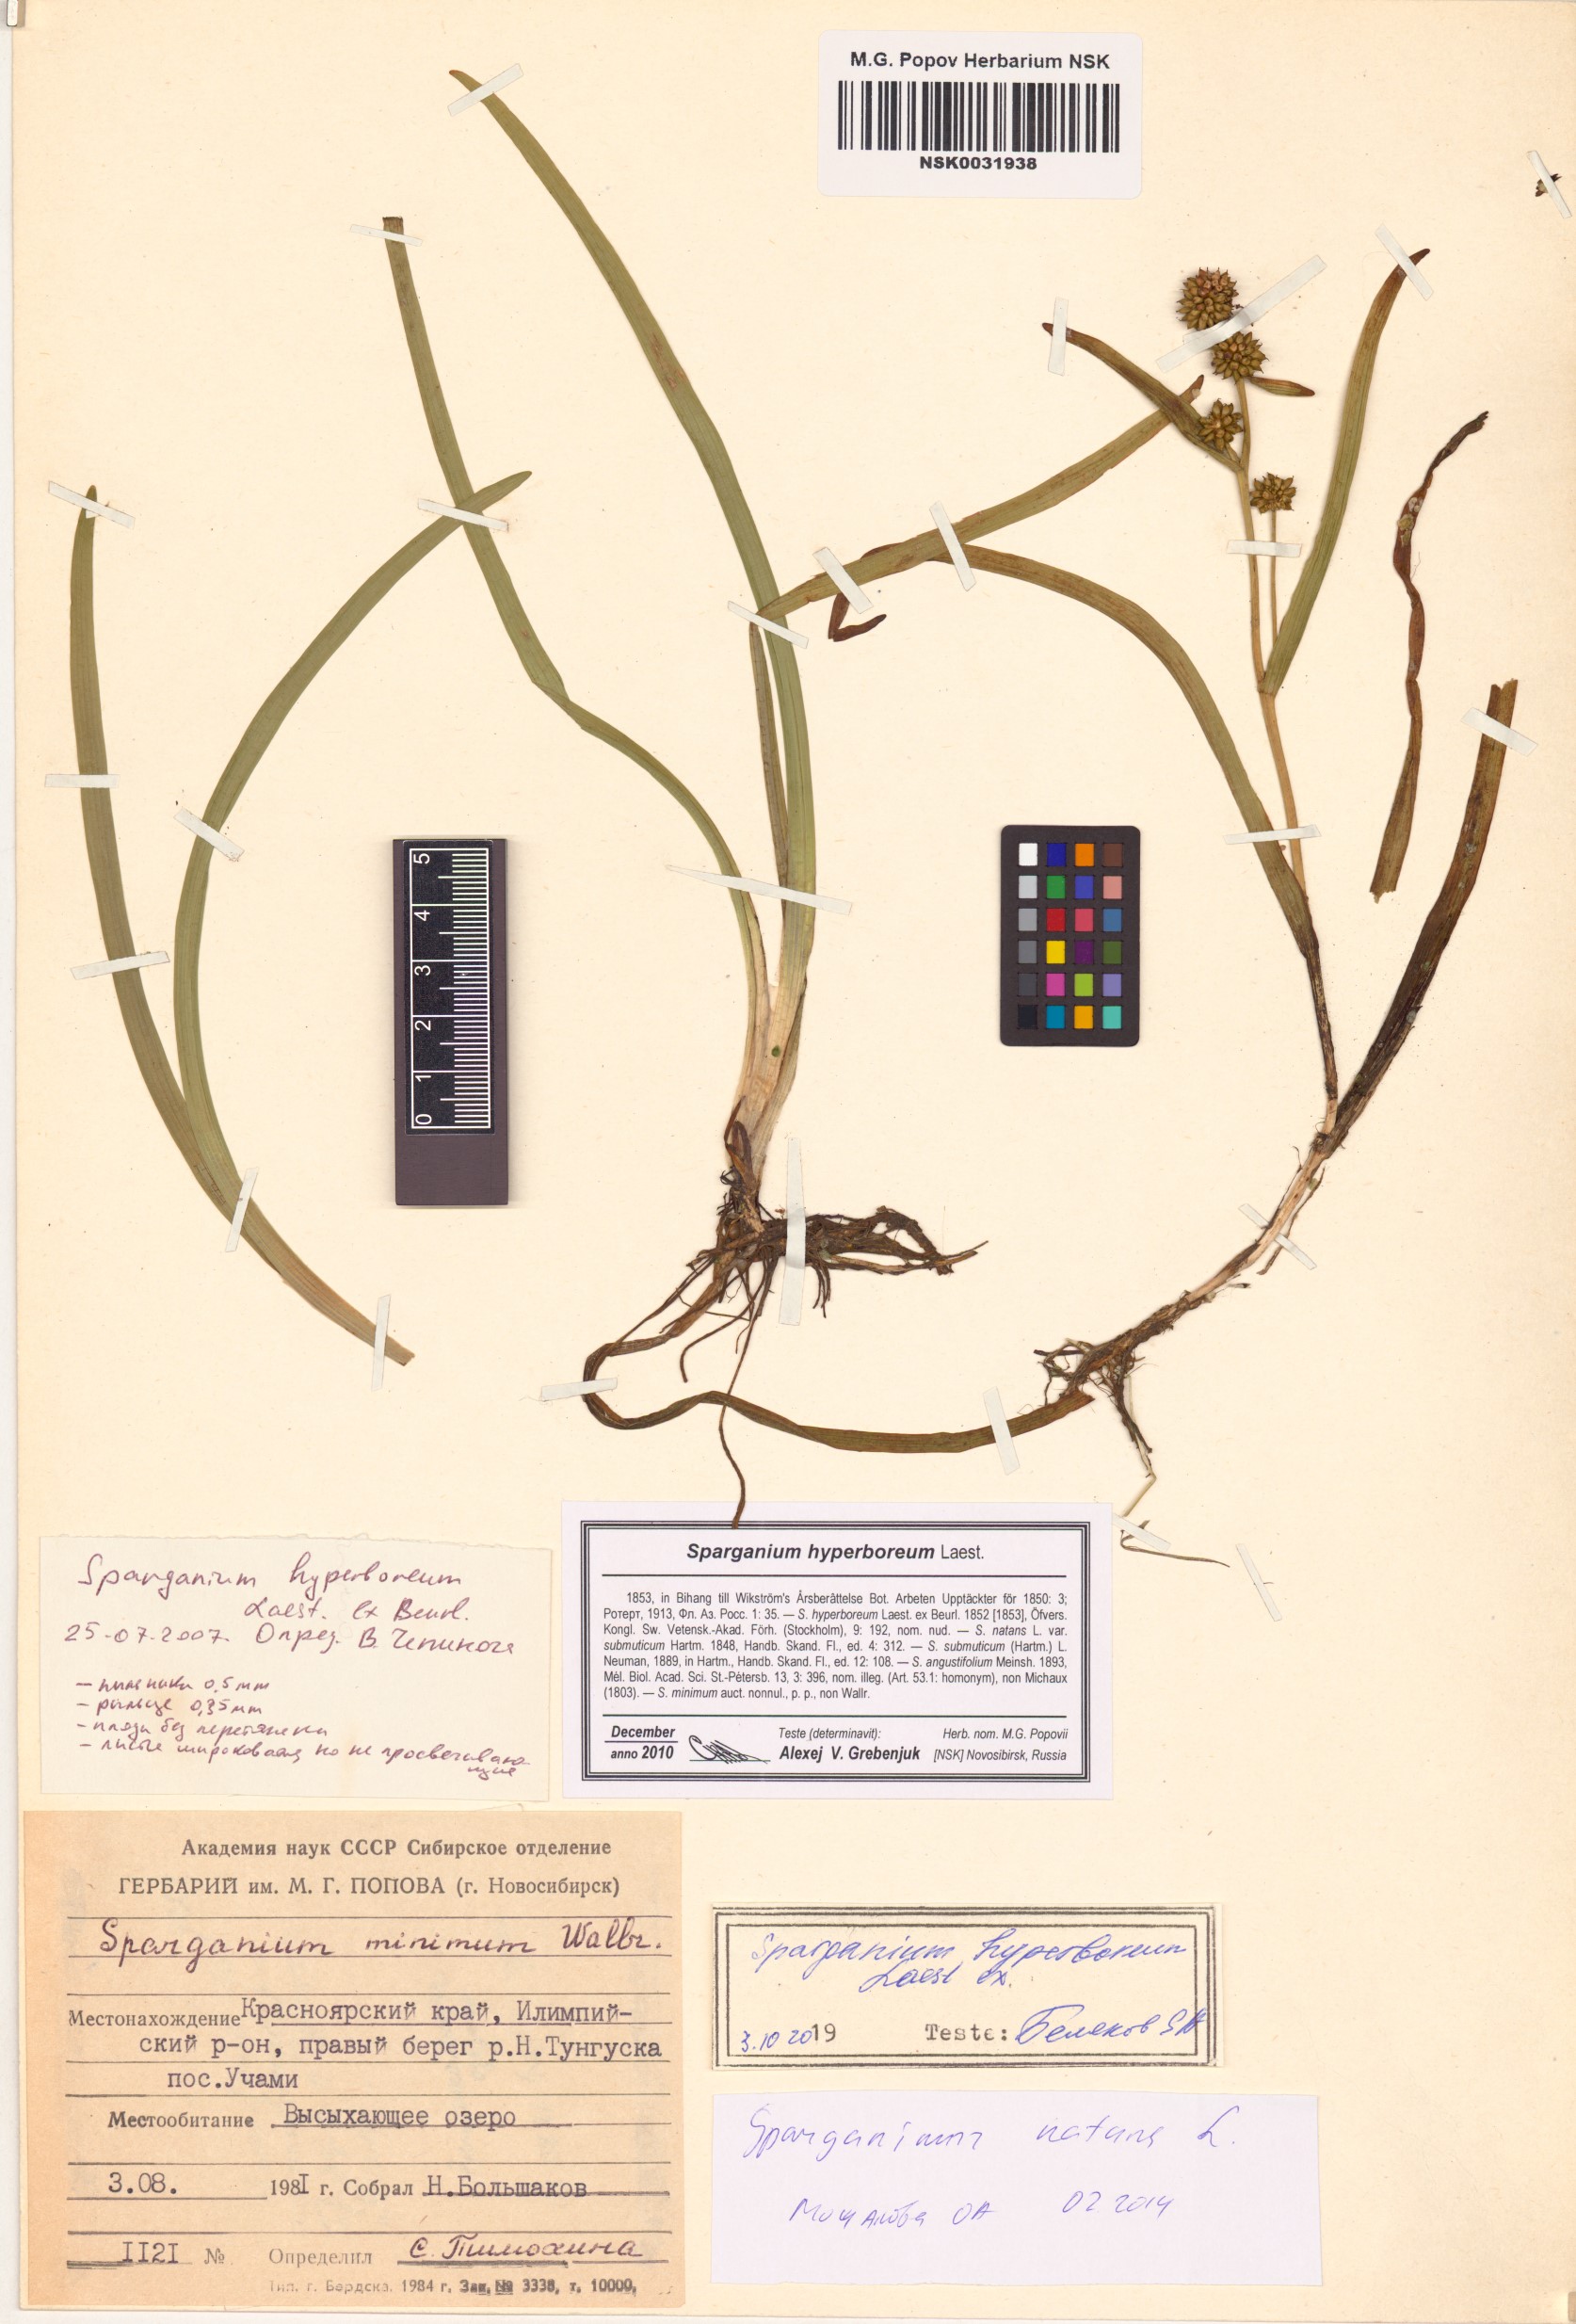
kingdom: Plantae
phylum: Tracheophyta
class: Liliopsida
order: Poales
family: Typhaceae
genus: Sparganium
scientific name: Sparganium hyperboreum
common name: Arctic burreed
